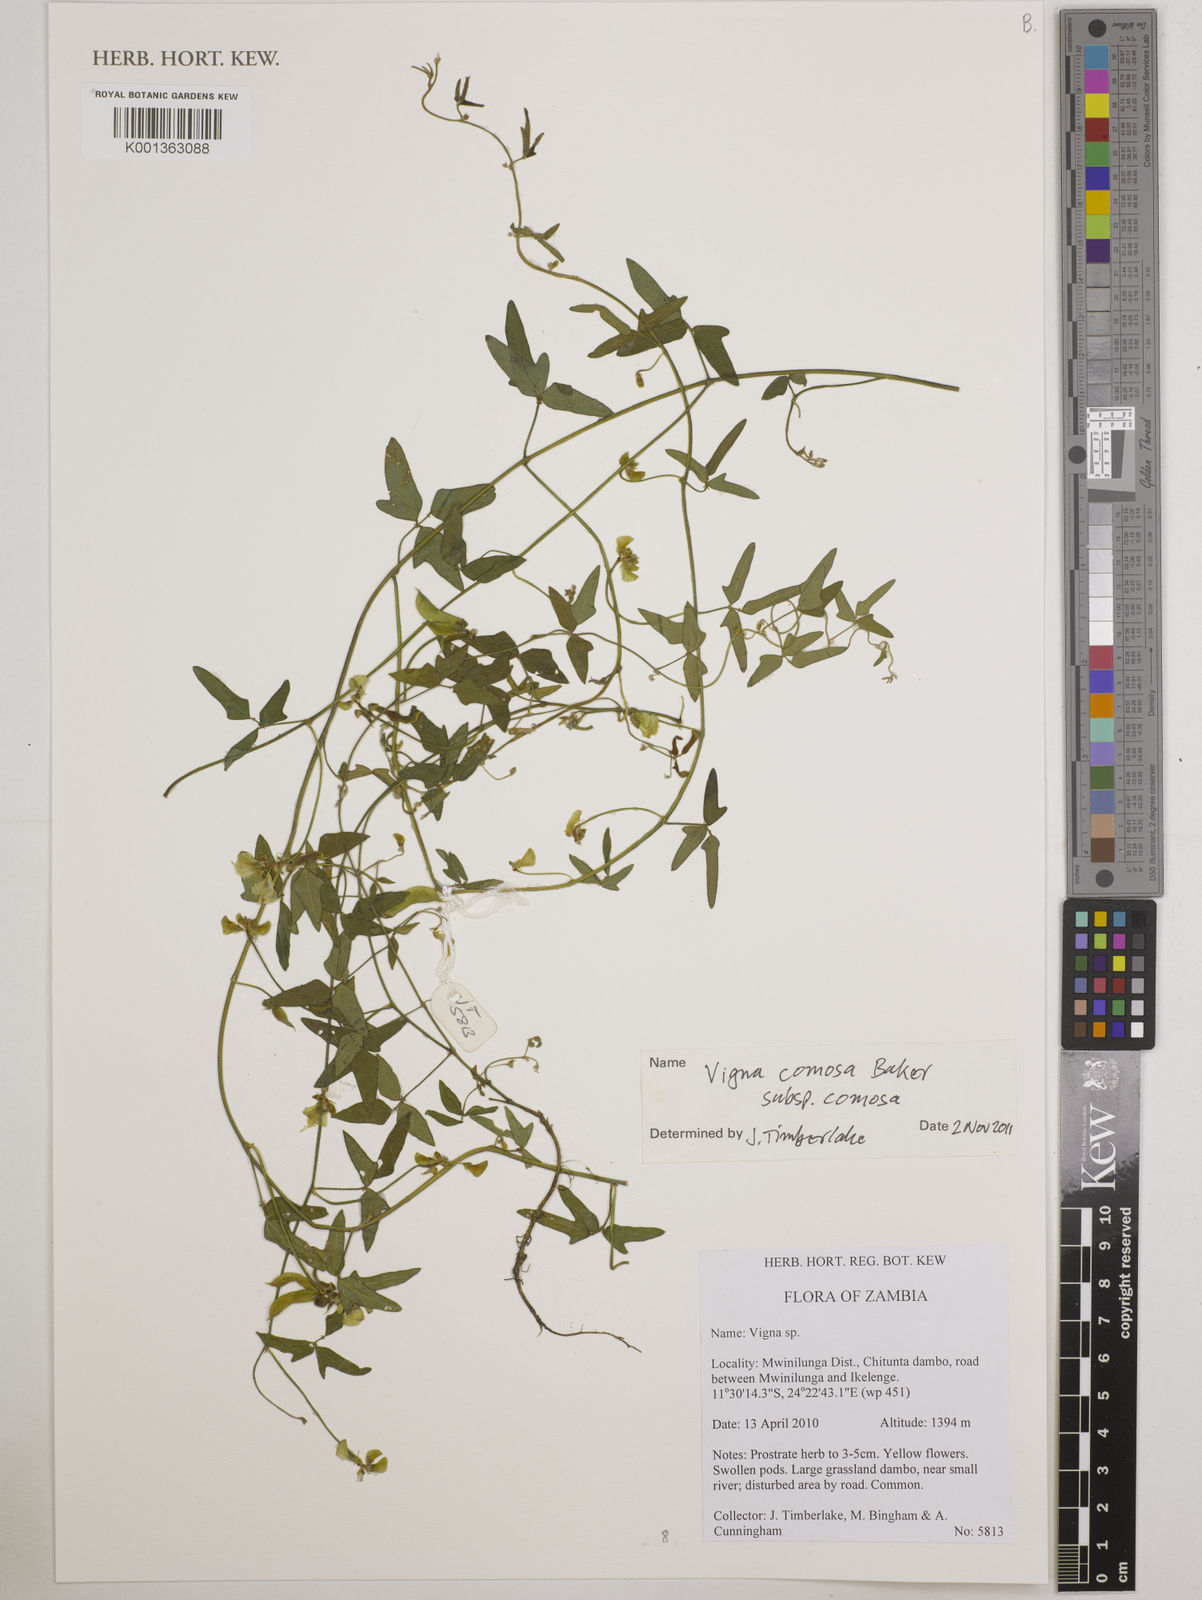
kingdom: Plantae
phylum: Tracheophyta
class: Magnoliopsida
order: Fabales
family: Fabaceae
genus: Vigna
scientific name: Vigna comosa
